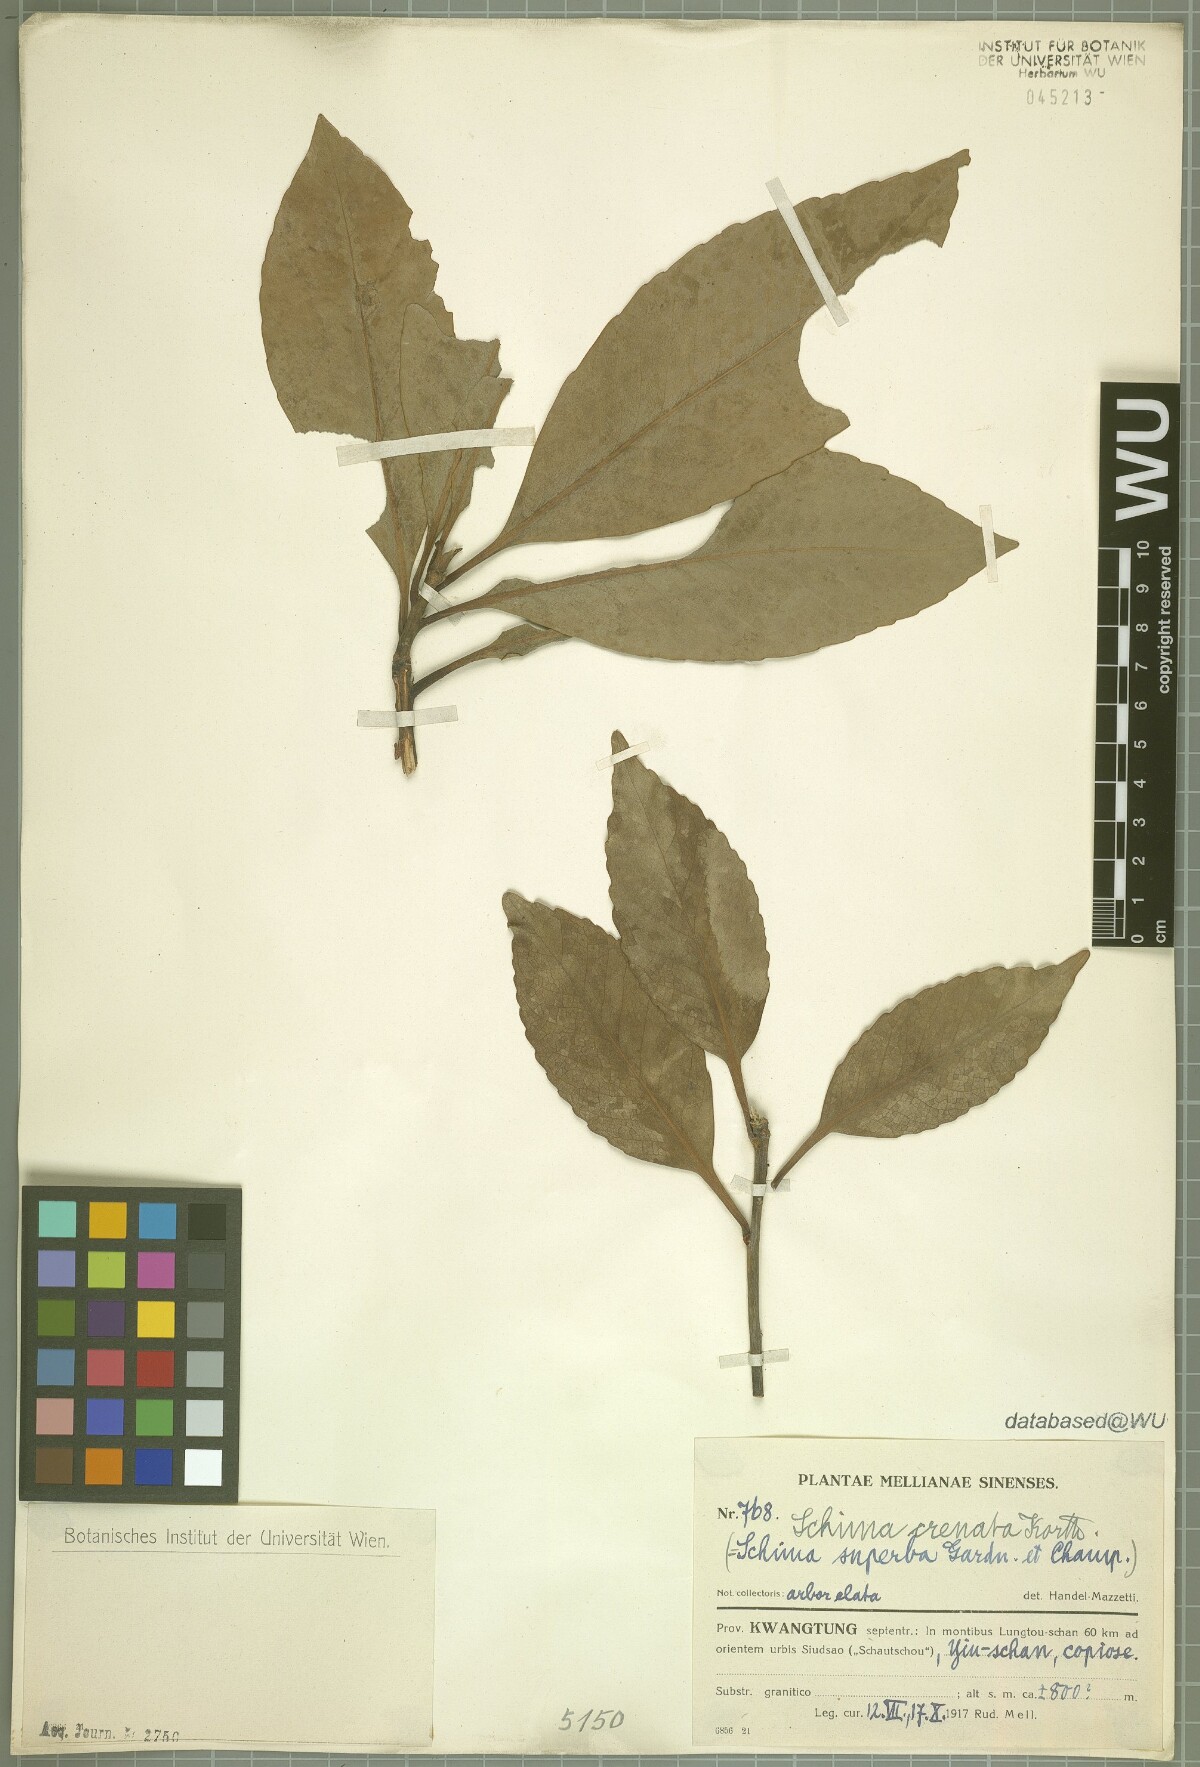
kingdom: Plantae
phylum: Tracheophyta
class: Magnoliopsida
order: Ericales
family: Theaceae
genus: Schima
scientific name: Schima wallichii
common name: Schima
